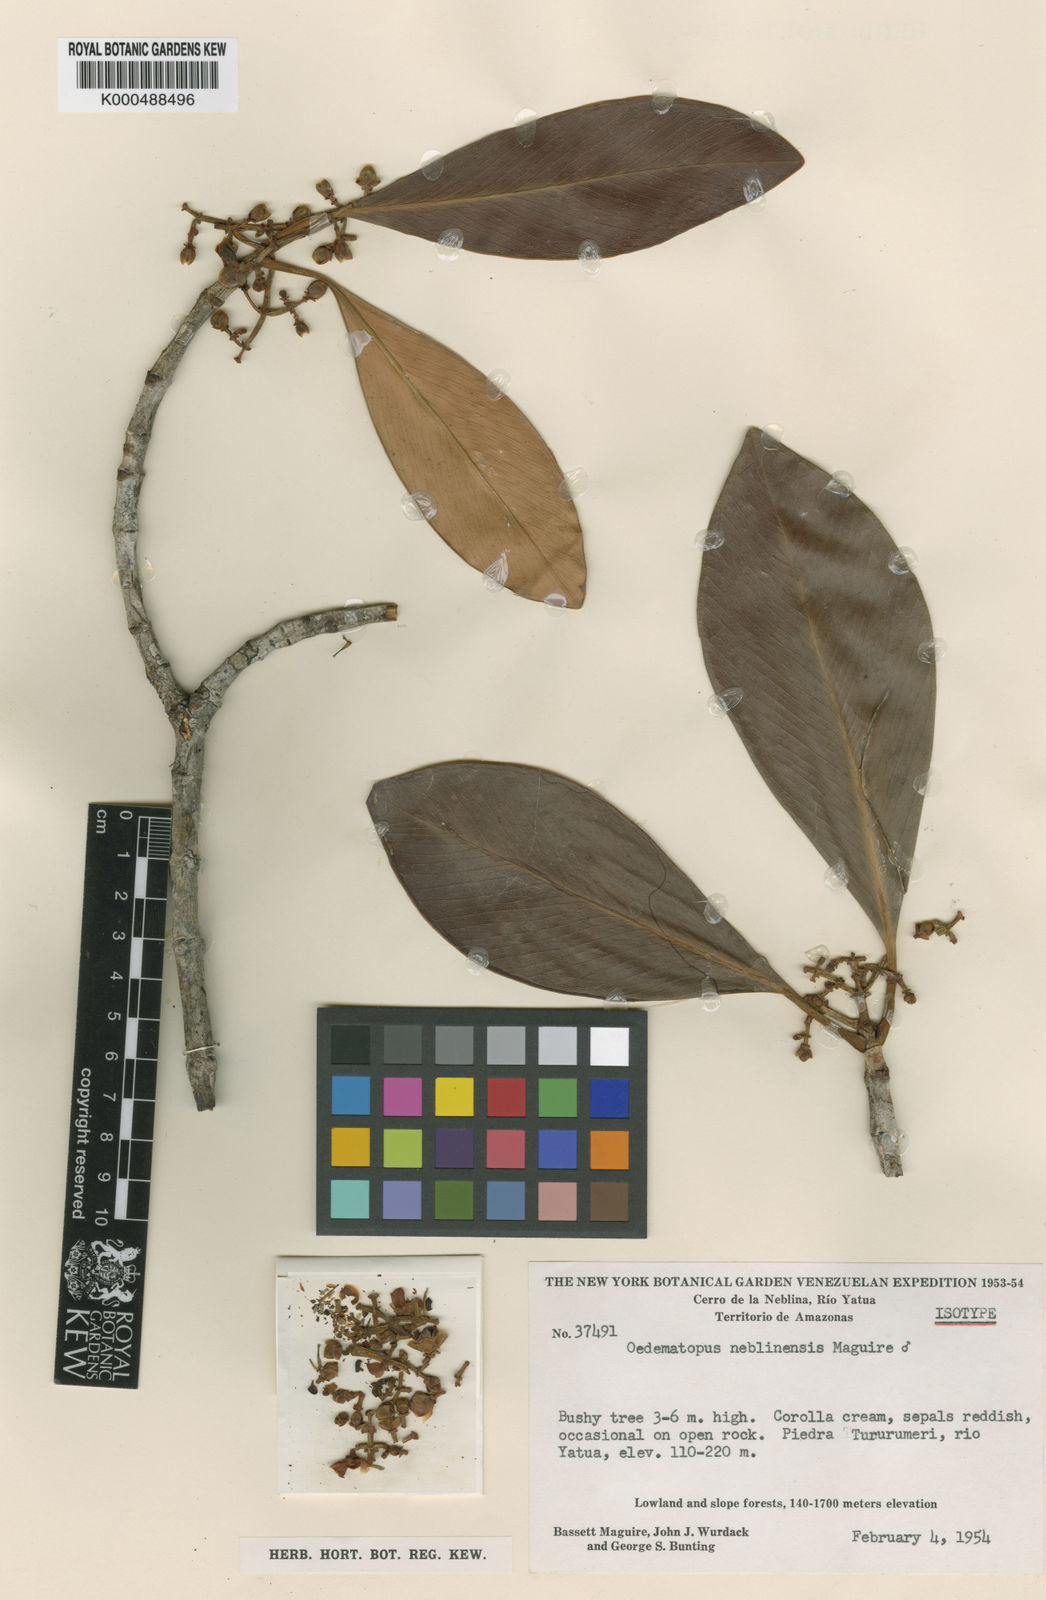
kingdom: Animalia
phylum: Arthropoda
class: Insecta
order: Diptera
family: Dolichopodidae
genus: Oedematopus
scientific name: Oedematopus
